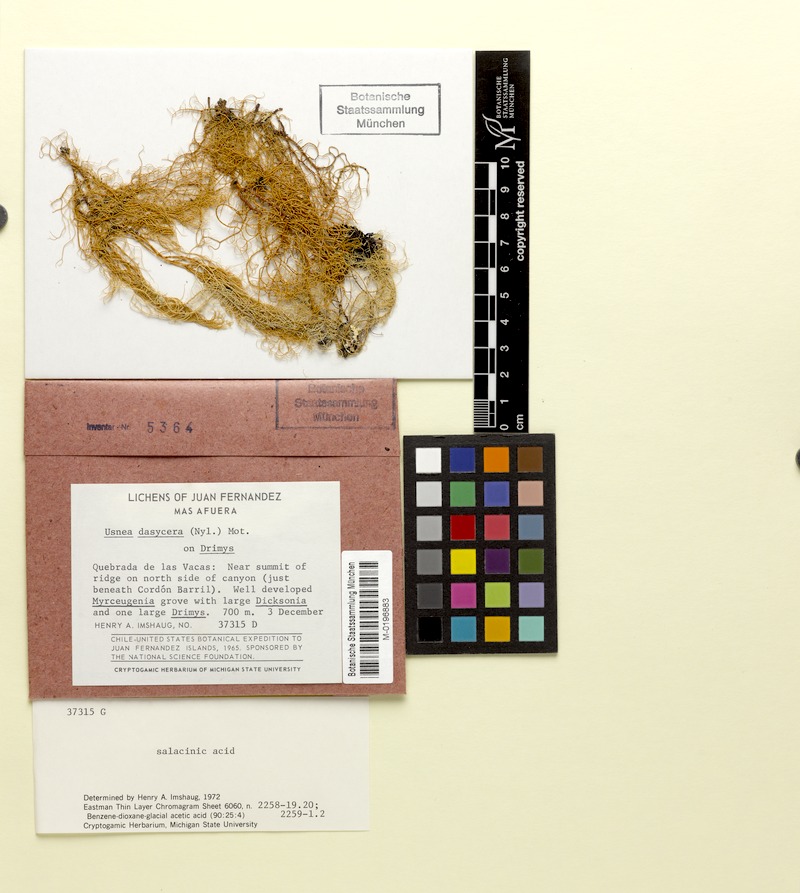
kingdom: Fungi
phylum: Ascomycota
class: Lecanoromycetes
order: Lecanorales
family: Parmeliaceae
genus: Usnea
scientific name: Usnea dasycera
